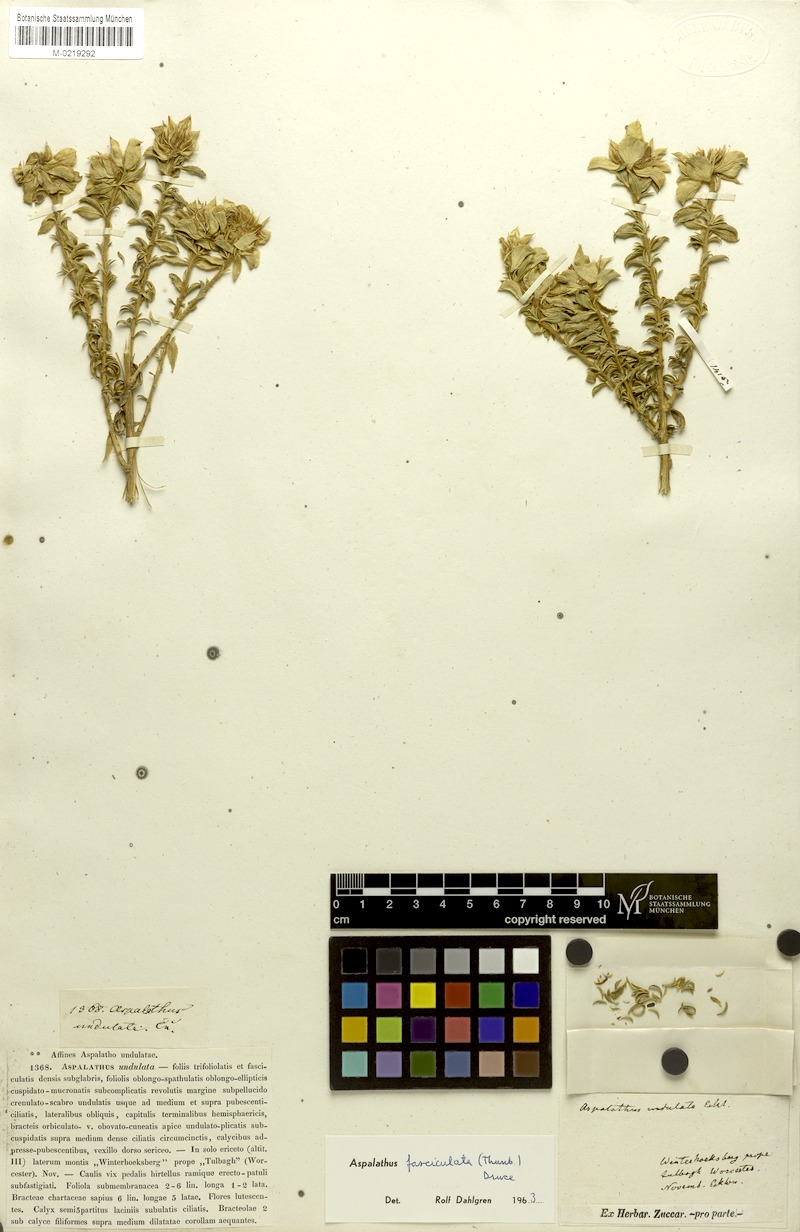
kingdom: Plantae
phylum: Tracheophyta
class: Magnoliopsida
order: Fabales
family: Fabaceae
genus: Aspalathus
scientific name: Aspalathus fasciculata
